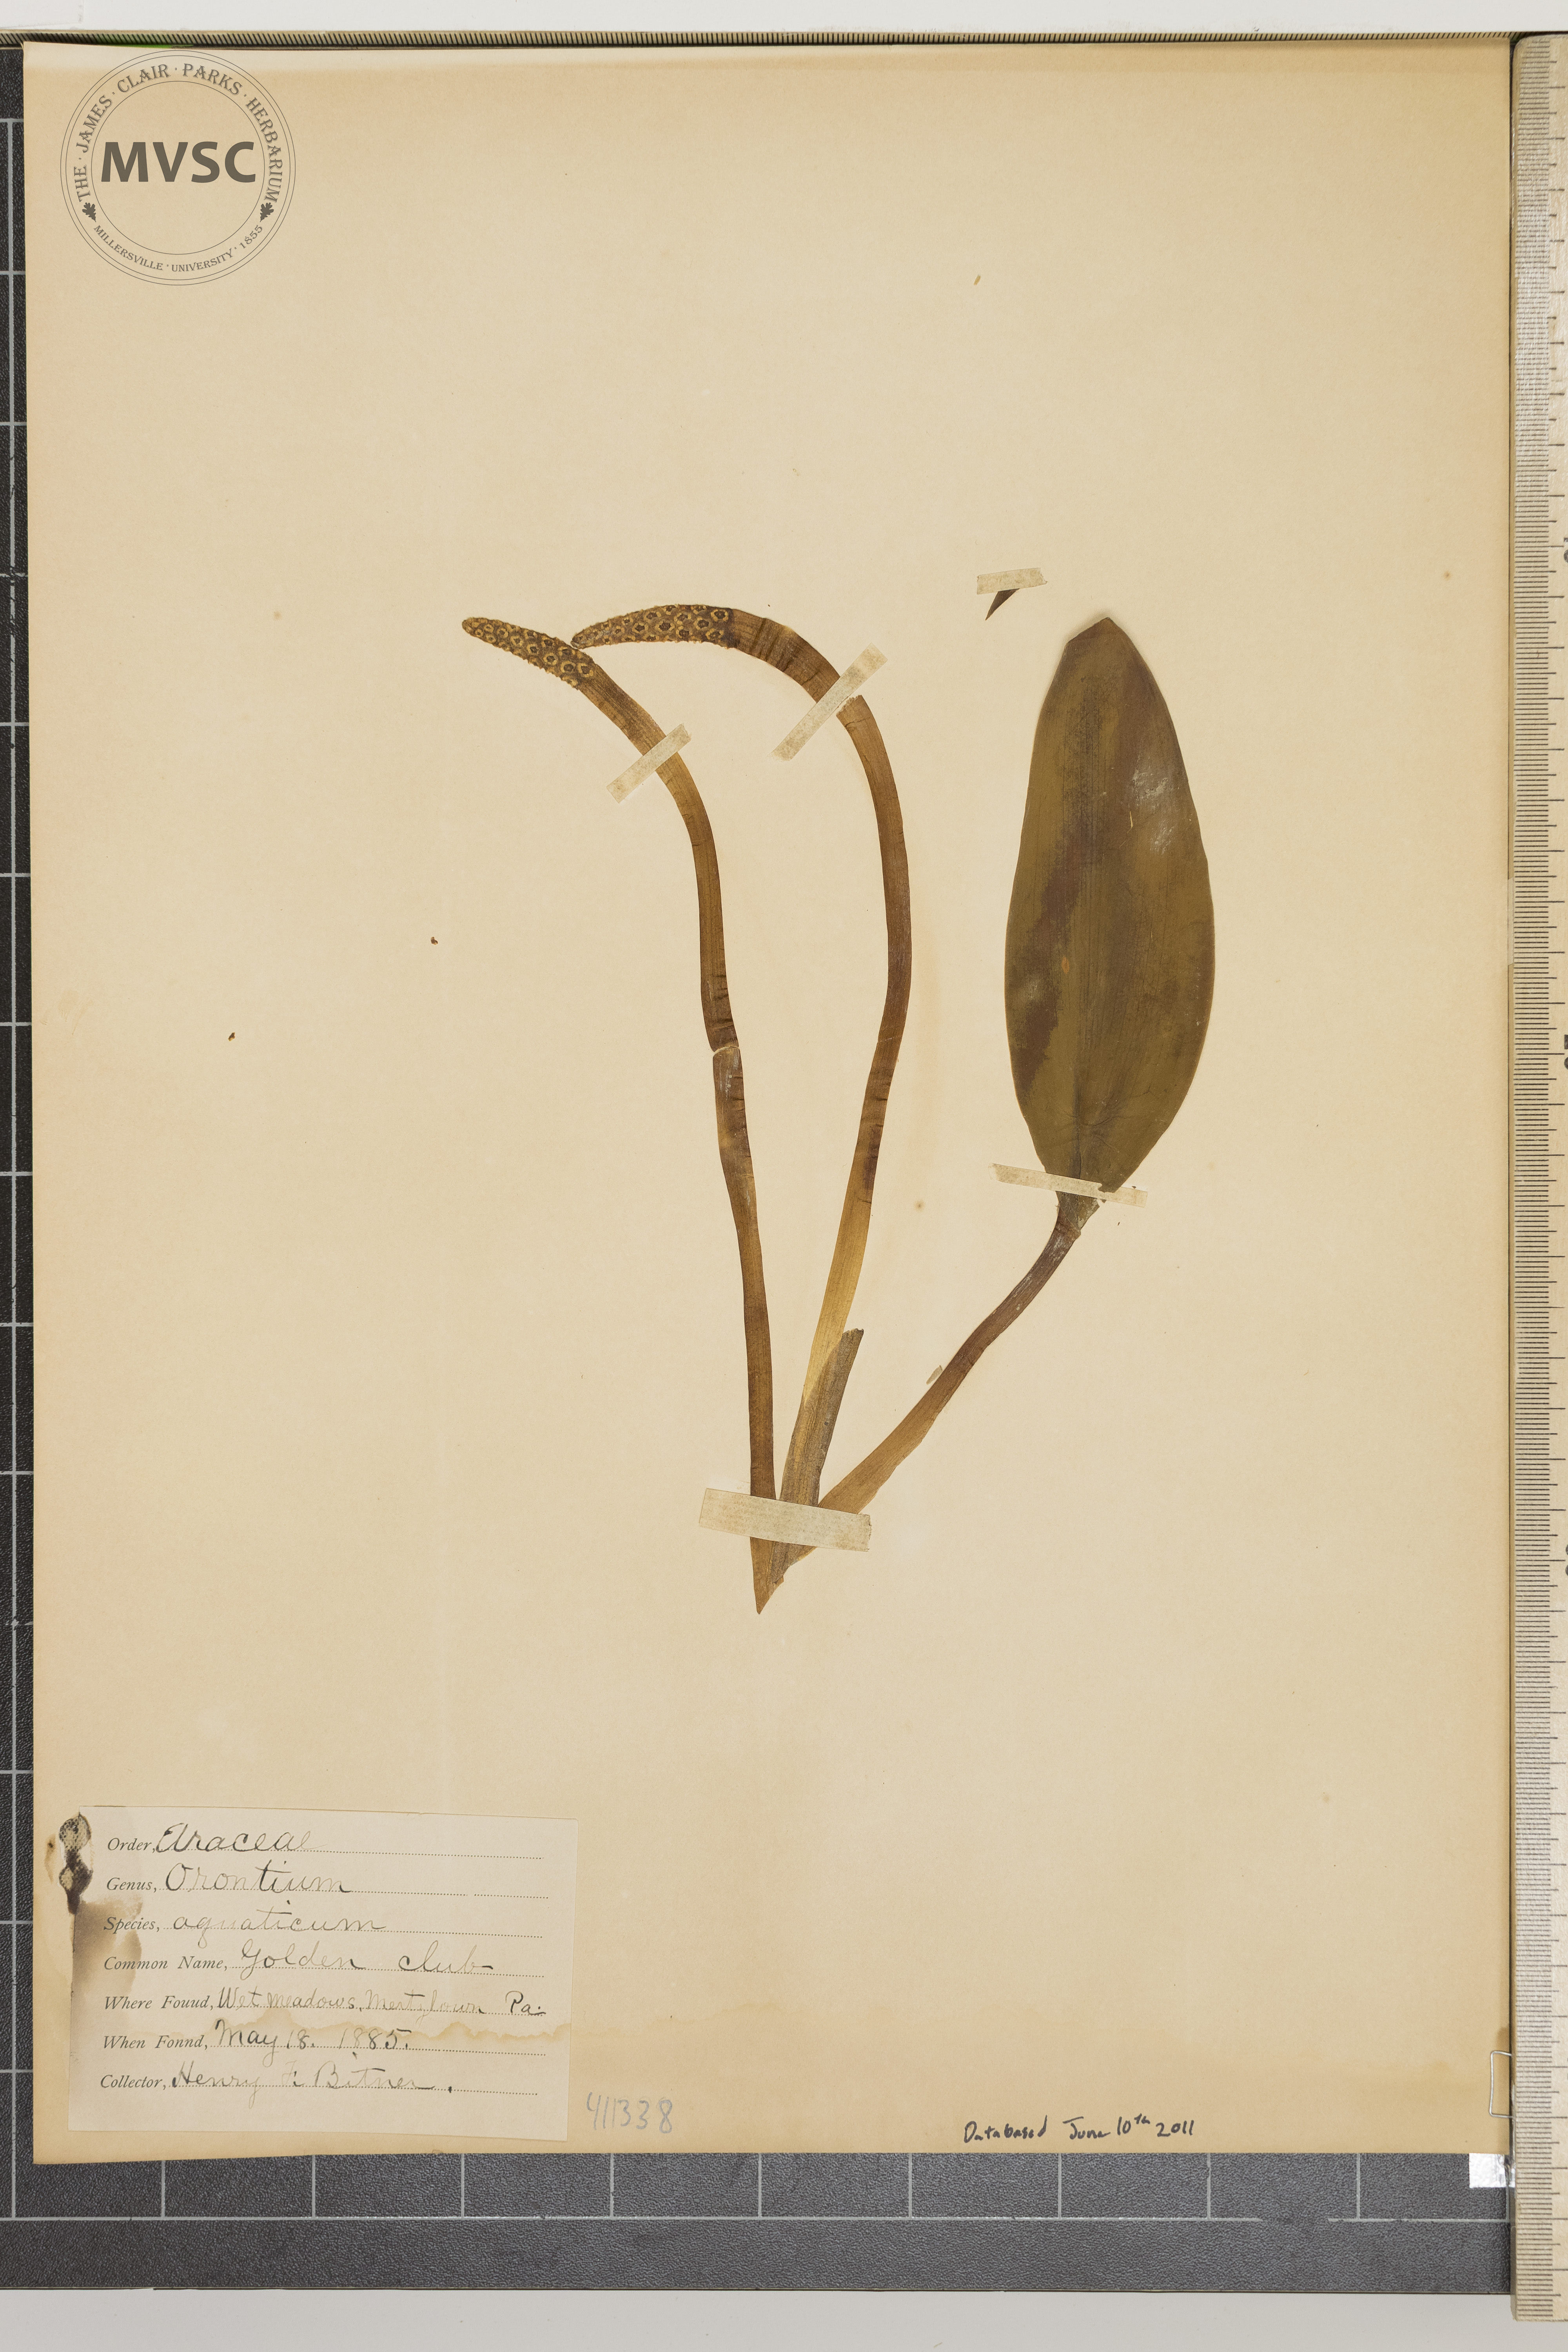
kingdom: Plantae
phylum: Tracheophyta
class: Liliopsida
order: Alismatales
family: Araceae
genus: Orontium
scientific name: Orontium aquaticum
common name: Golden-club
